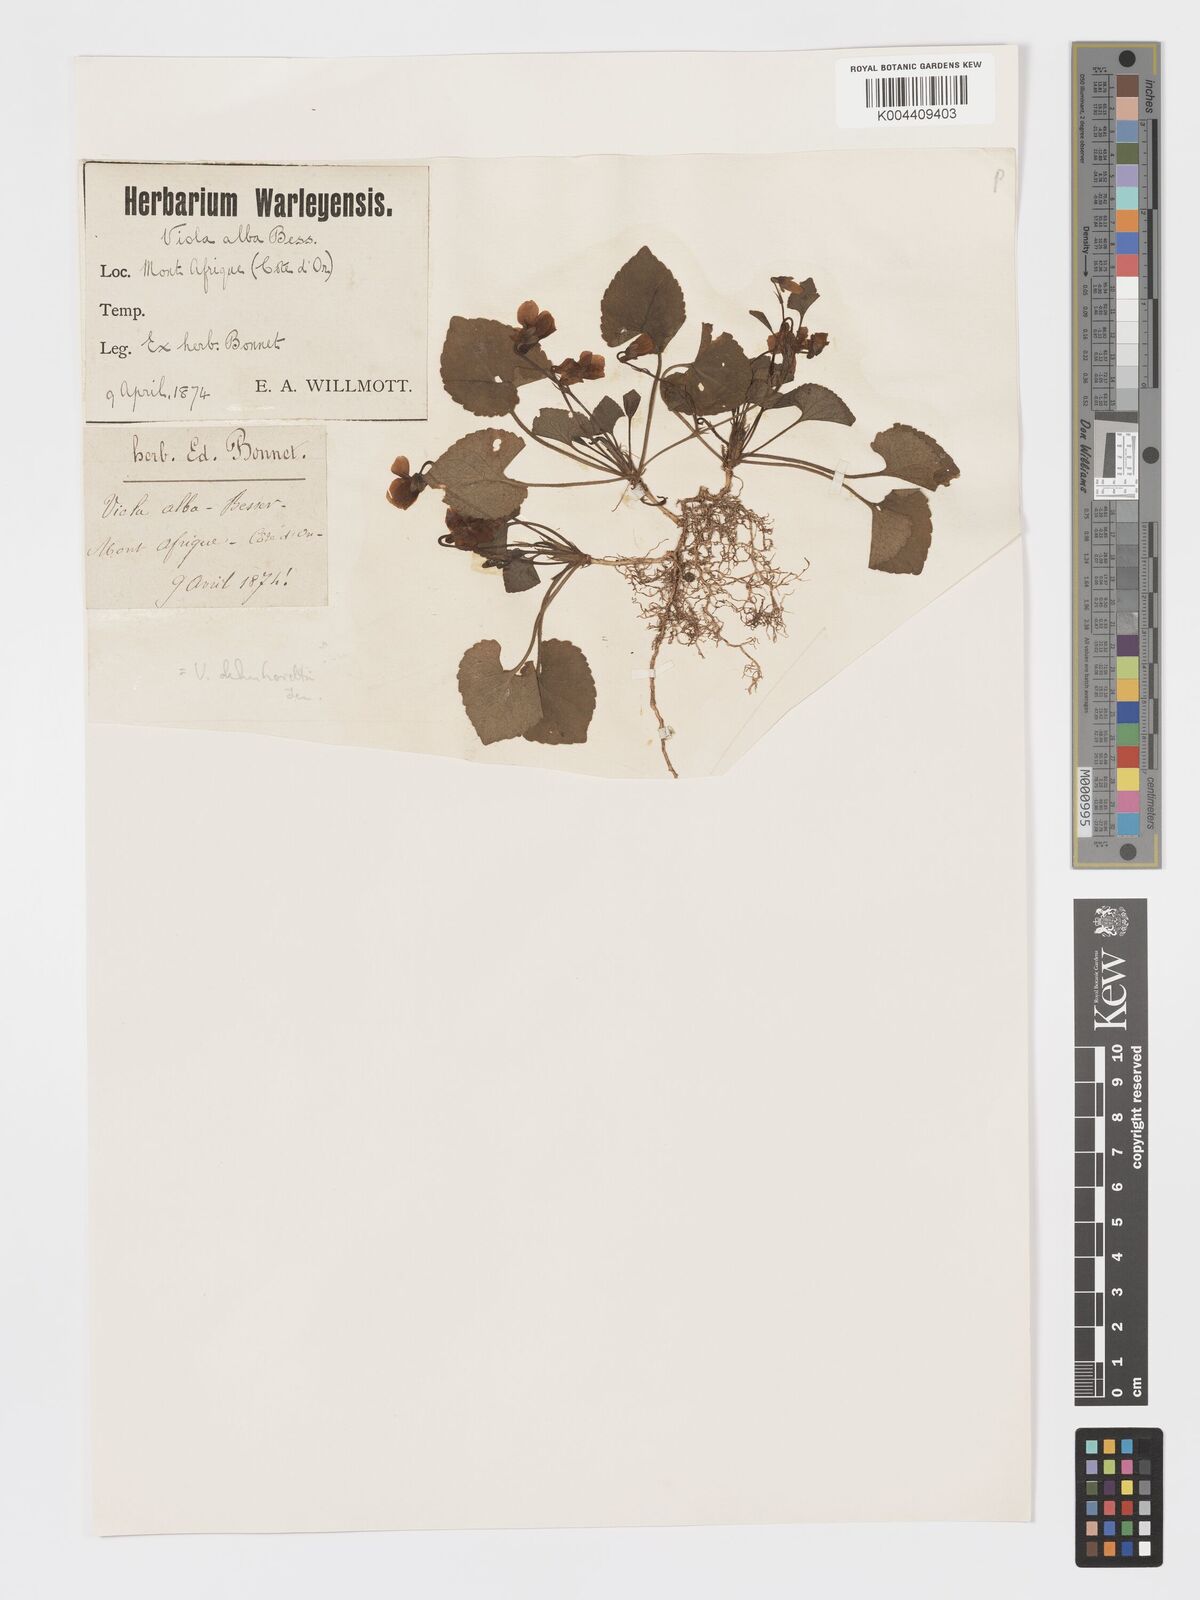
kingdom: Plantae
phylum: Tracheophyta
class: Magnoliopsida
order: Malpighiales
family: Violaceae
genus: Viola
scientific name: Viola alba
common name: White violet
